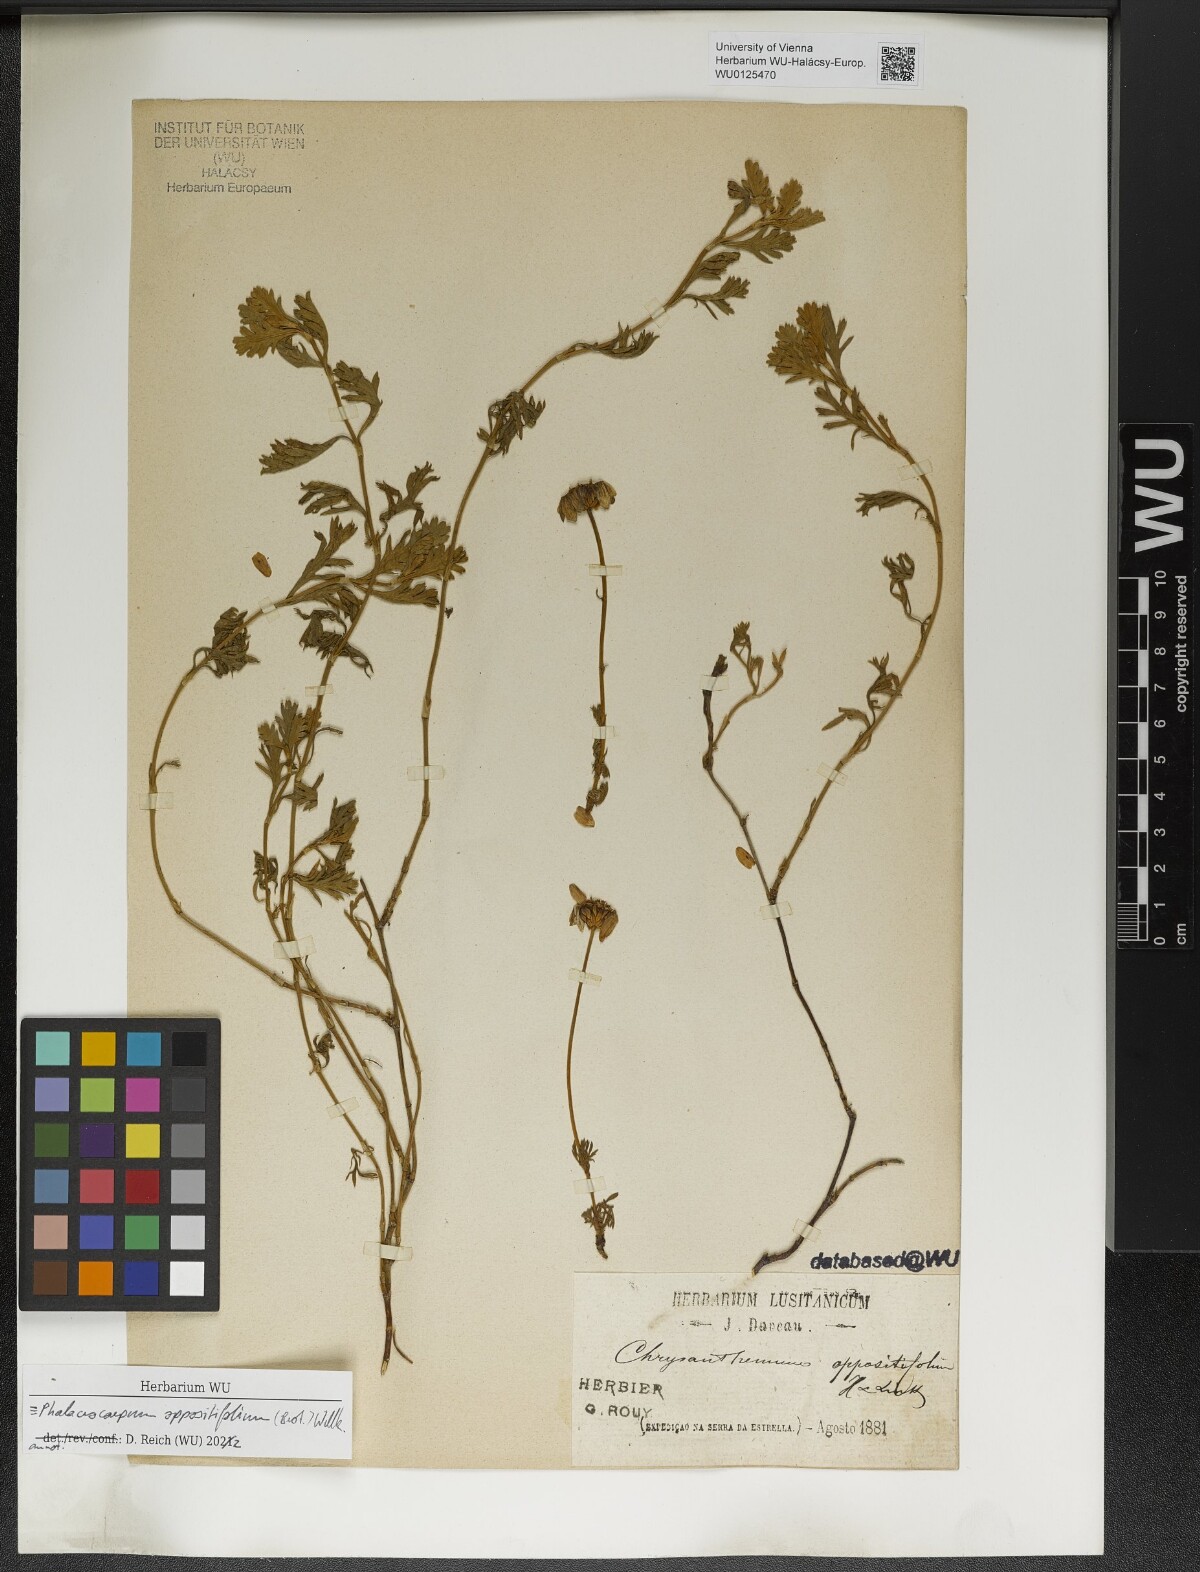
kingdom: Plantae
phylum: Tracheophyta
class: Magnoliopsida
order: Asterales
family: Asteraceae
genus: Phalacrocarpum
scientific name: Phalacrocarpum oppositifolium
